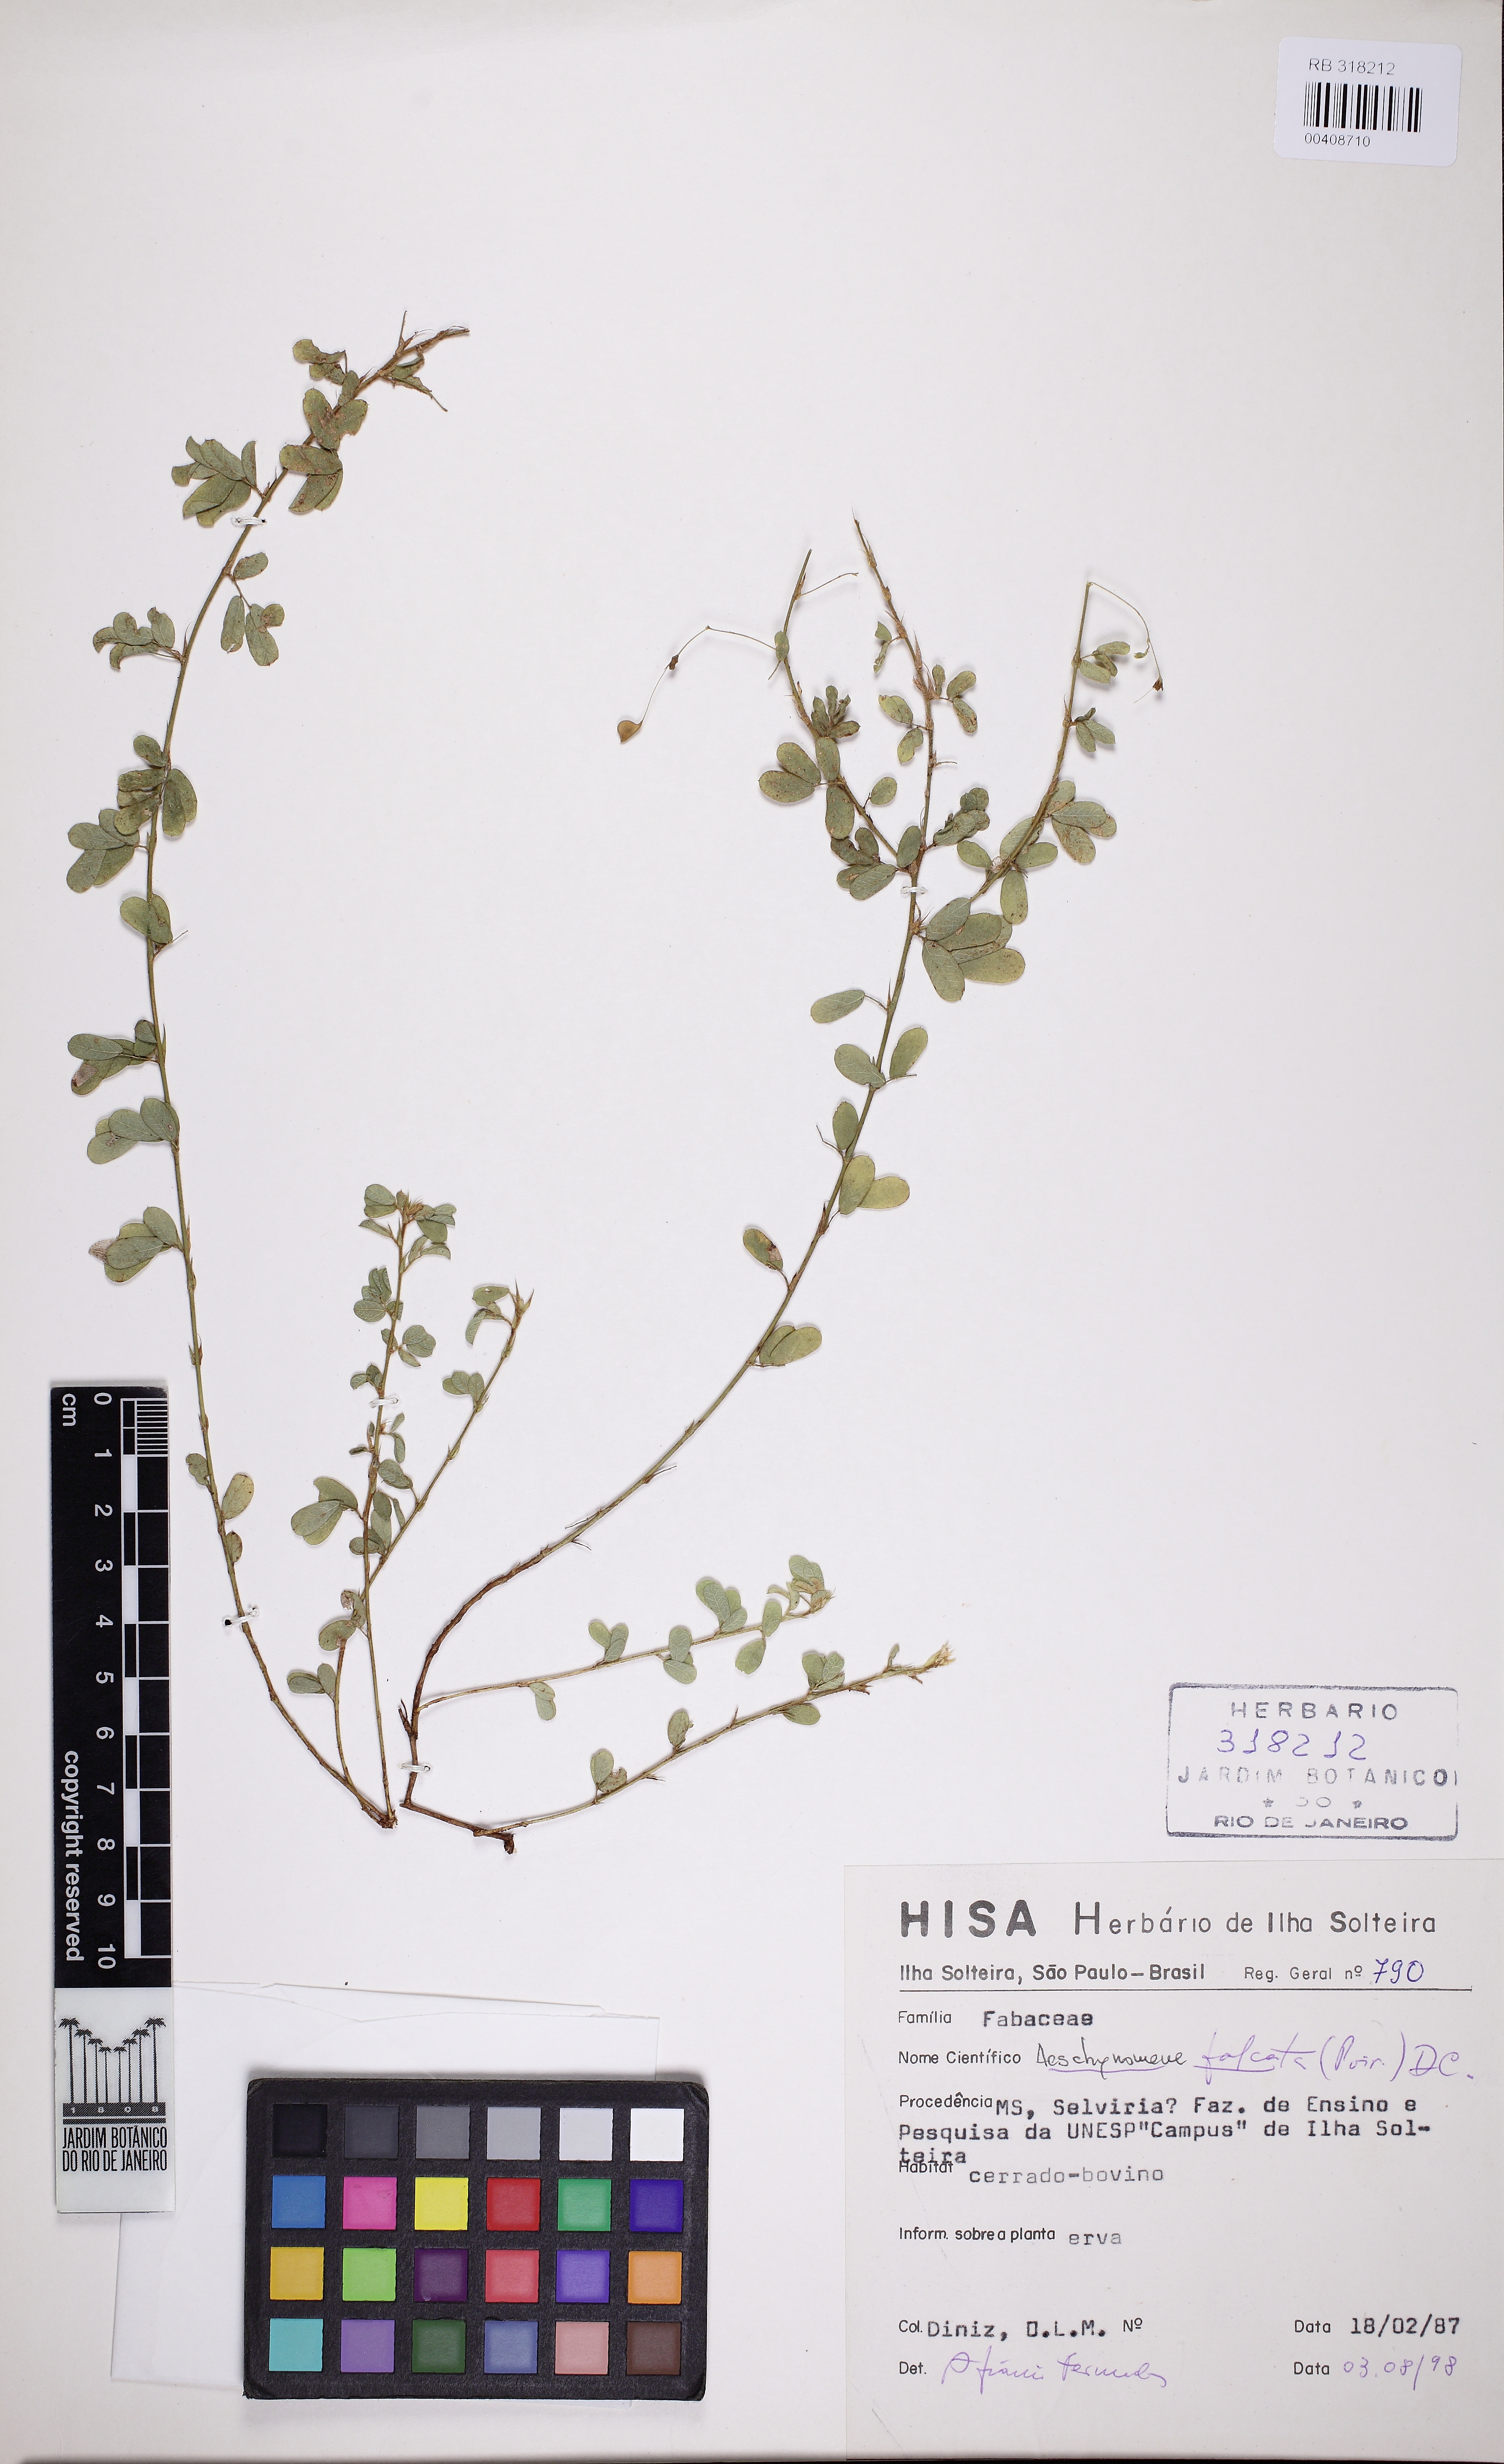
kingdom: Plantae
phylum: Tracheophyta
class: Magnoliopsida
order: Fabales
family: Fabaceae
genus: Ctenodon
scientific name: Ctenodon falcatus
